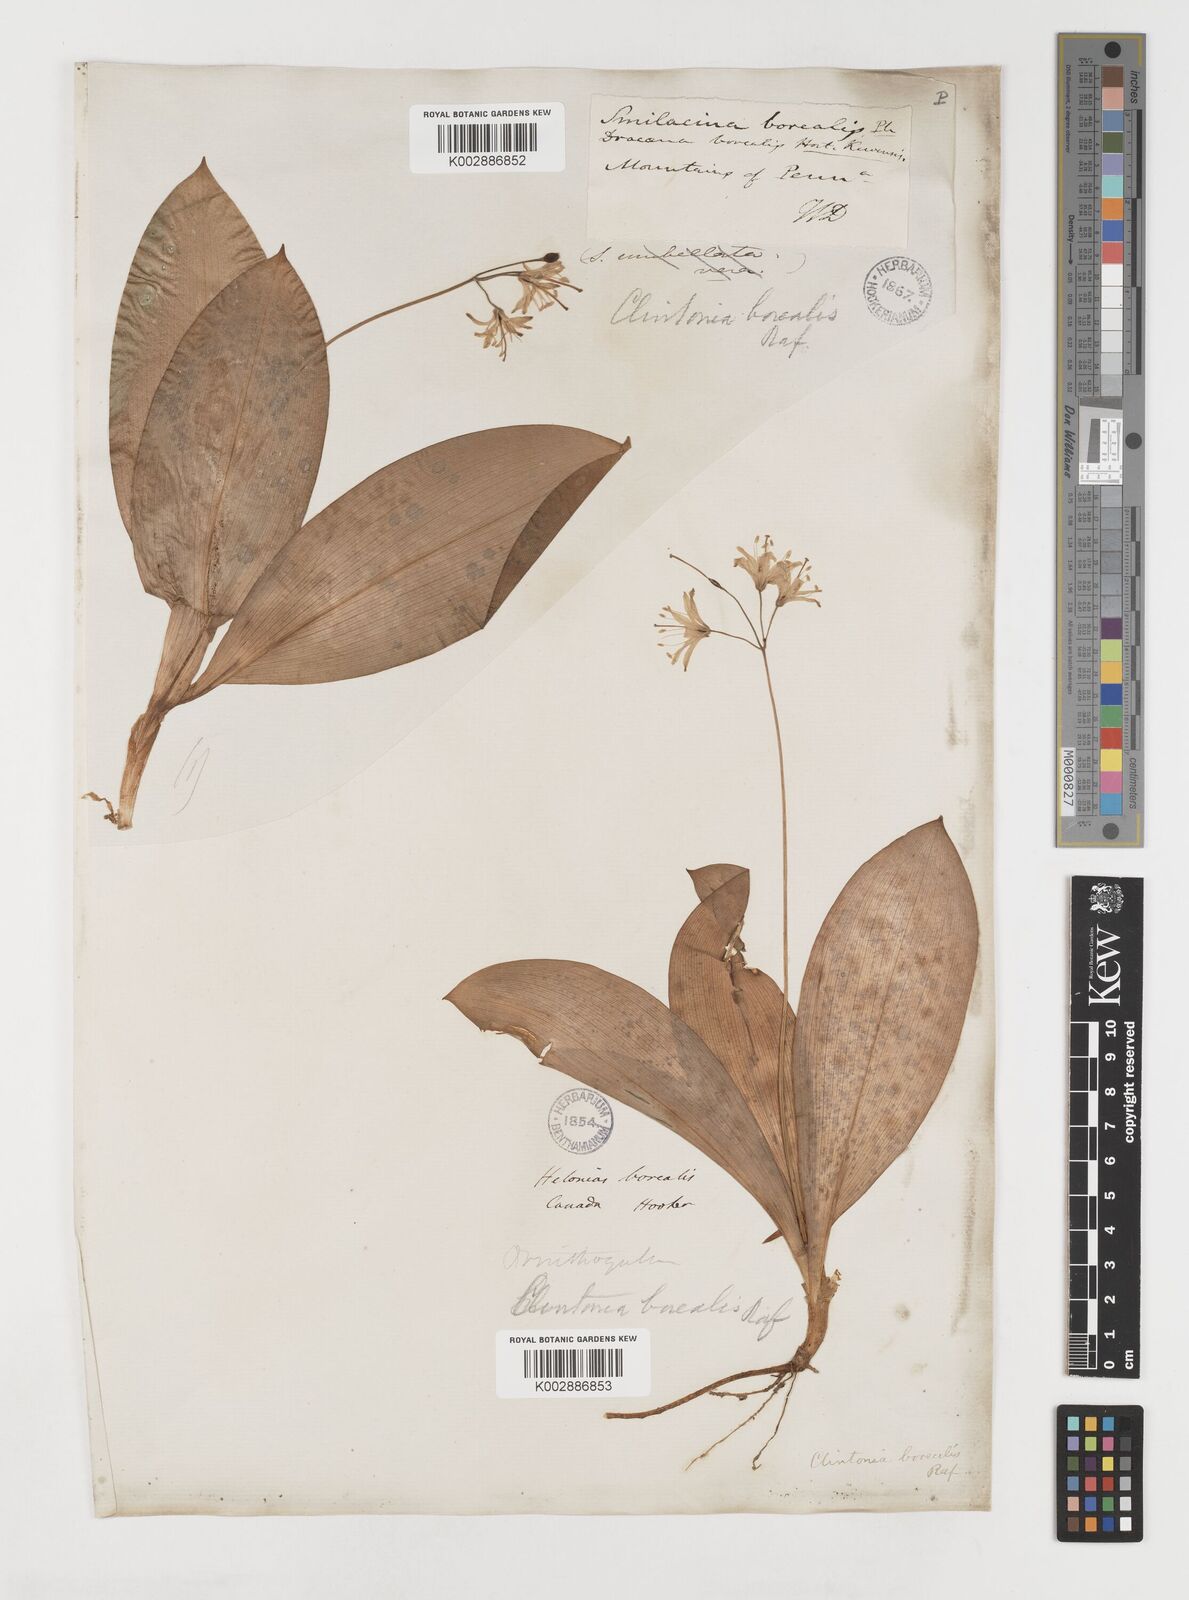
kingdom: Plantae
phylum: Tracheophyta
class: Liliopsida
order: Liliales
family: Liliaceae
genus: Clintonia
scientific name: Clintonia borealis
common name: Yellow clintonia
